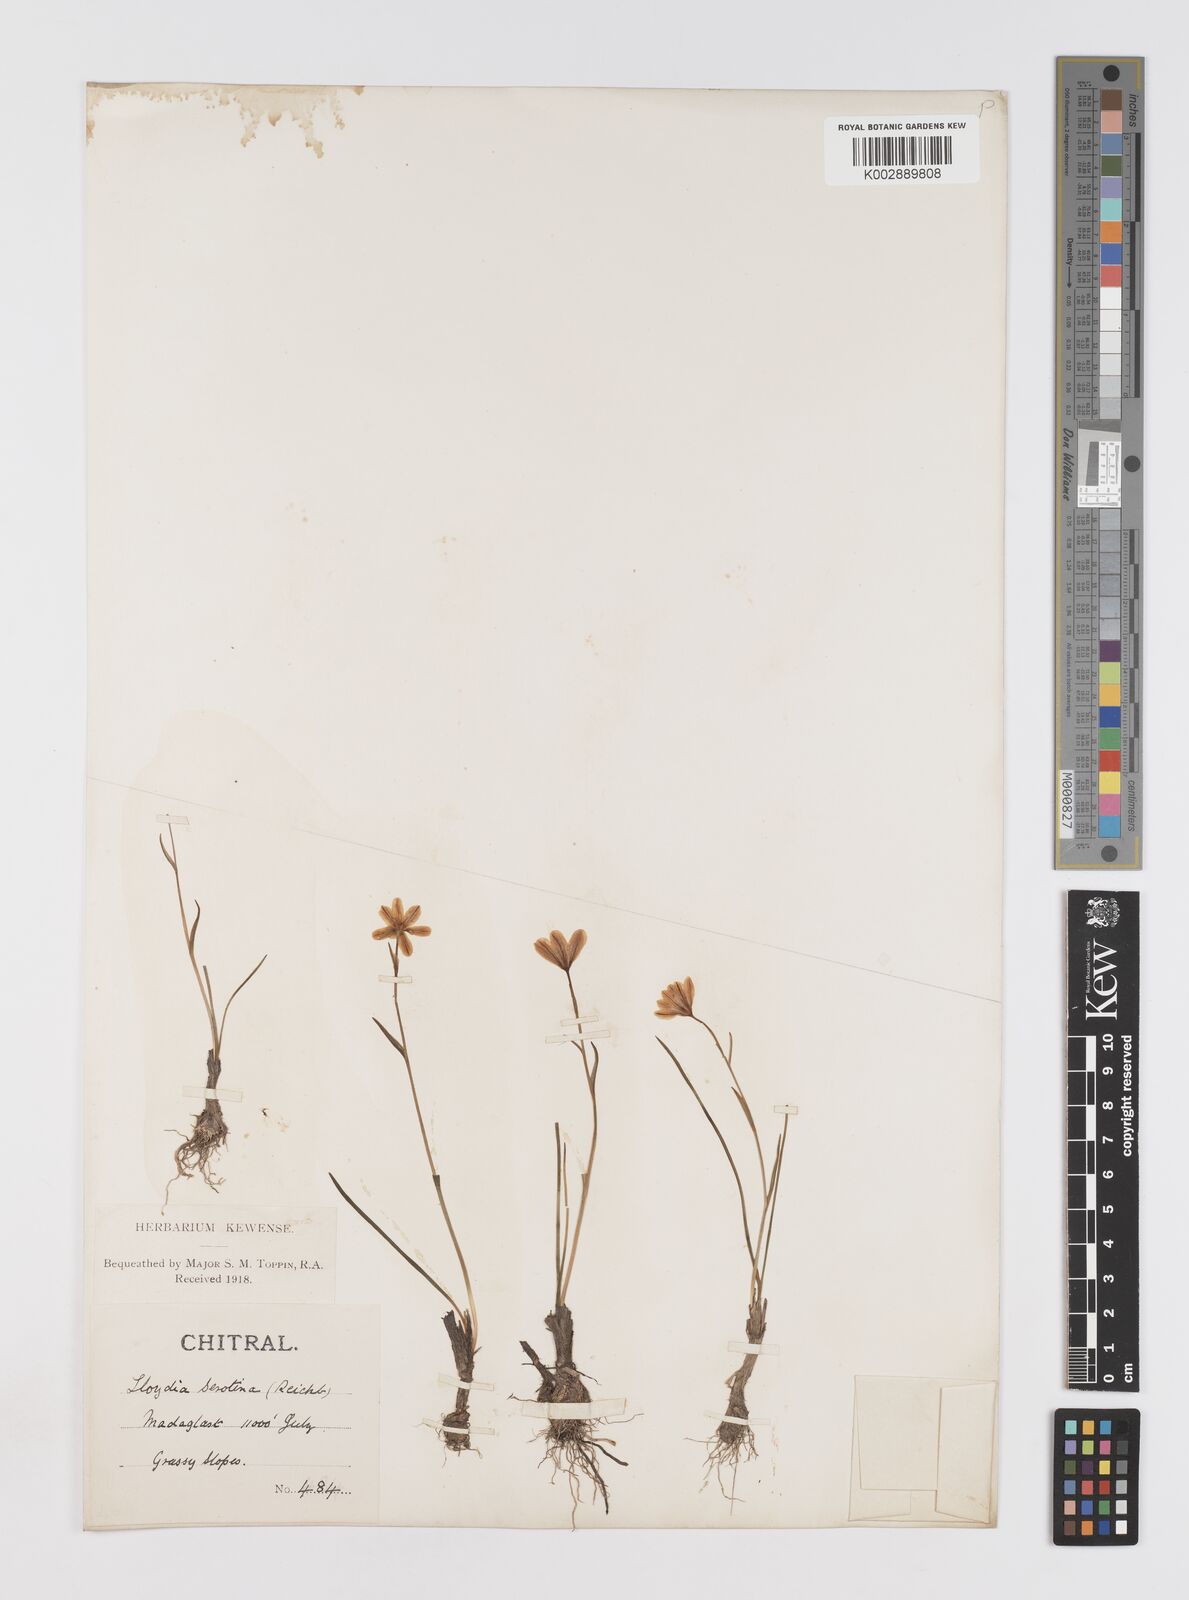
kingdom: Plantae
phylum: Tracheophyta
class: Liliopsida
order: Liliales
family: Liliaceae
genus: Gagea
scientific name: Gagea serotina
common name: Snowdon lily
